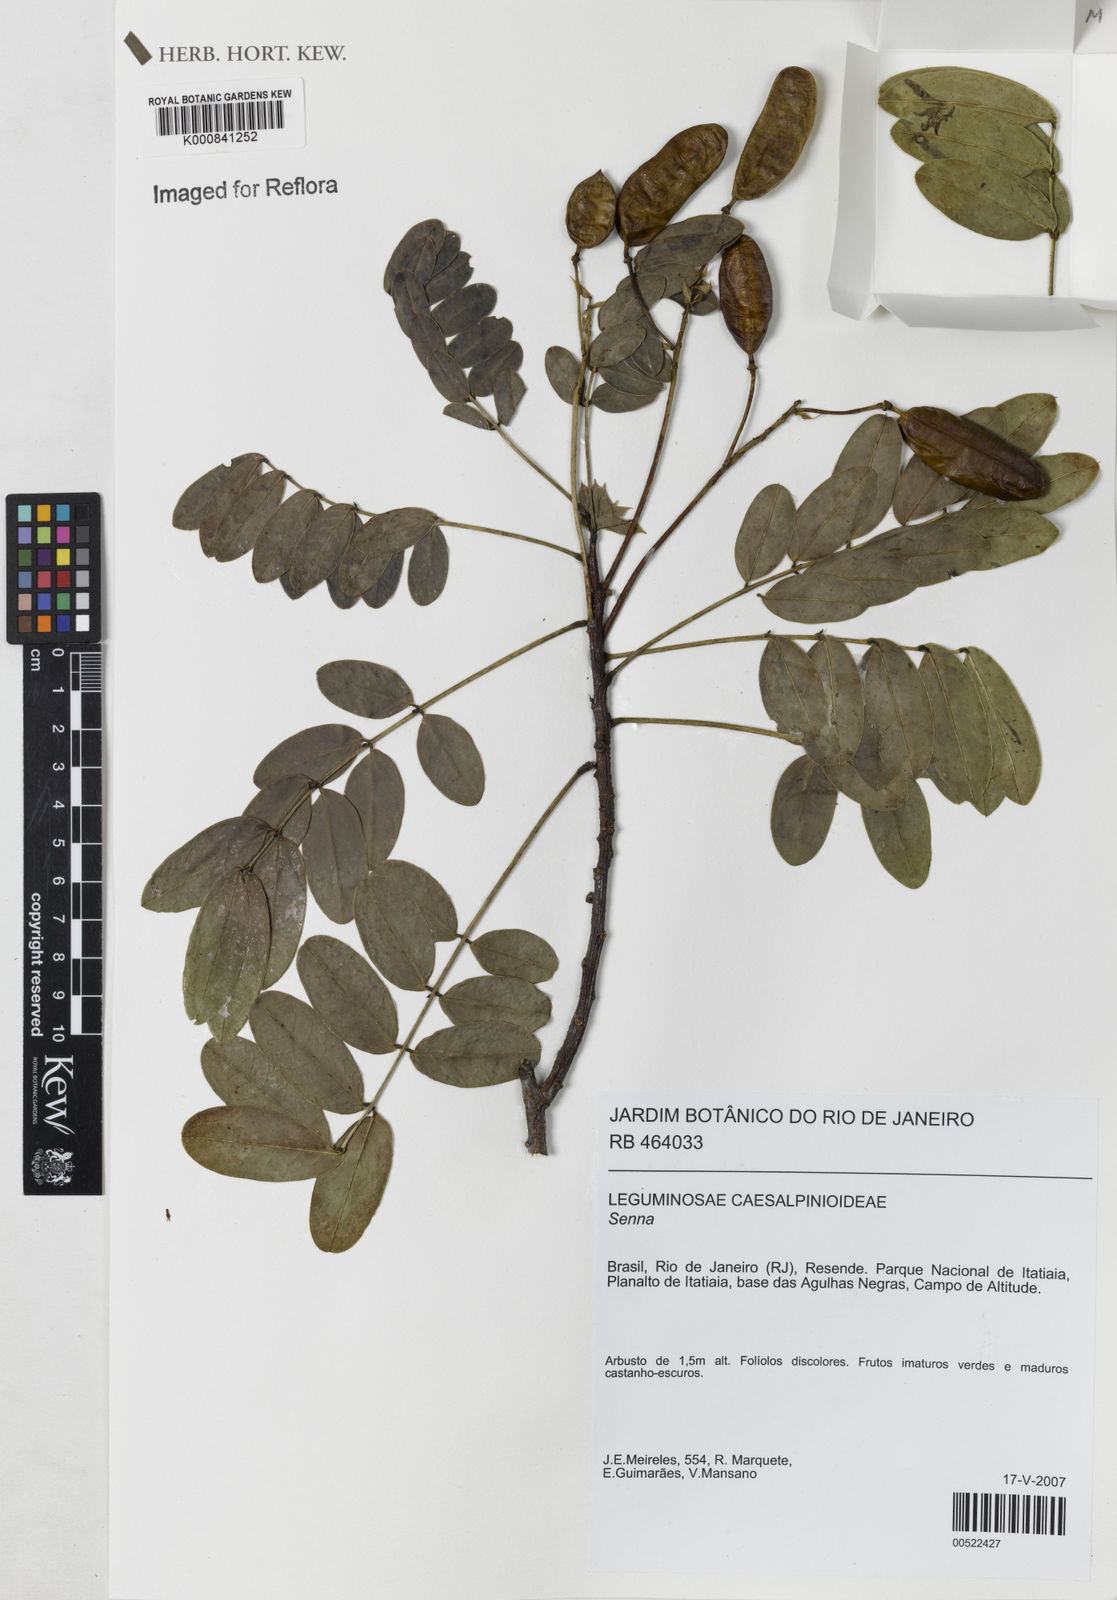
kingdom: Plantae
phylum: Tracheophyta
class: Magnoliopsida
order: Fabales
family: Fabaceae
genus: Senna
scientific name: Senna itatiaiae
